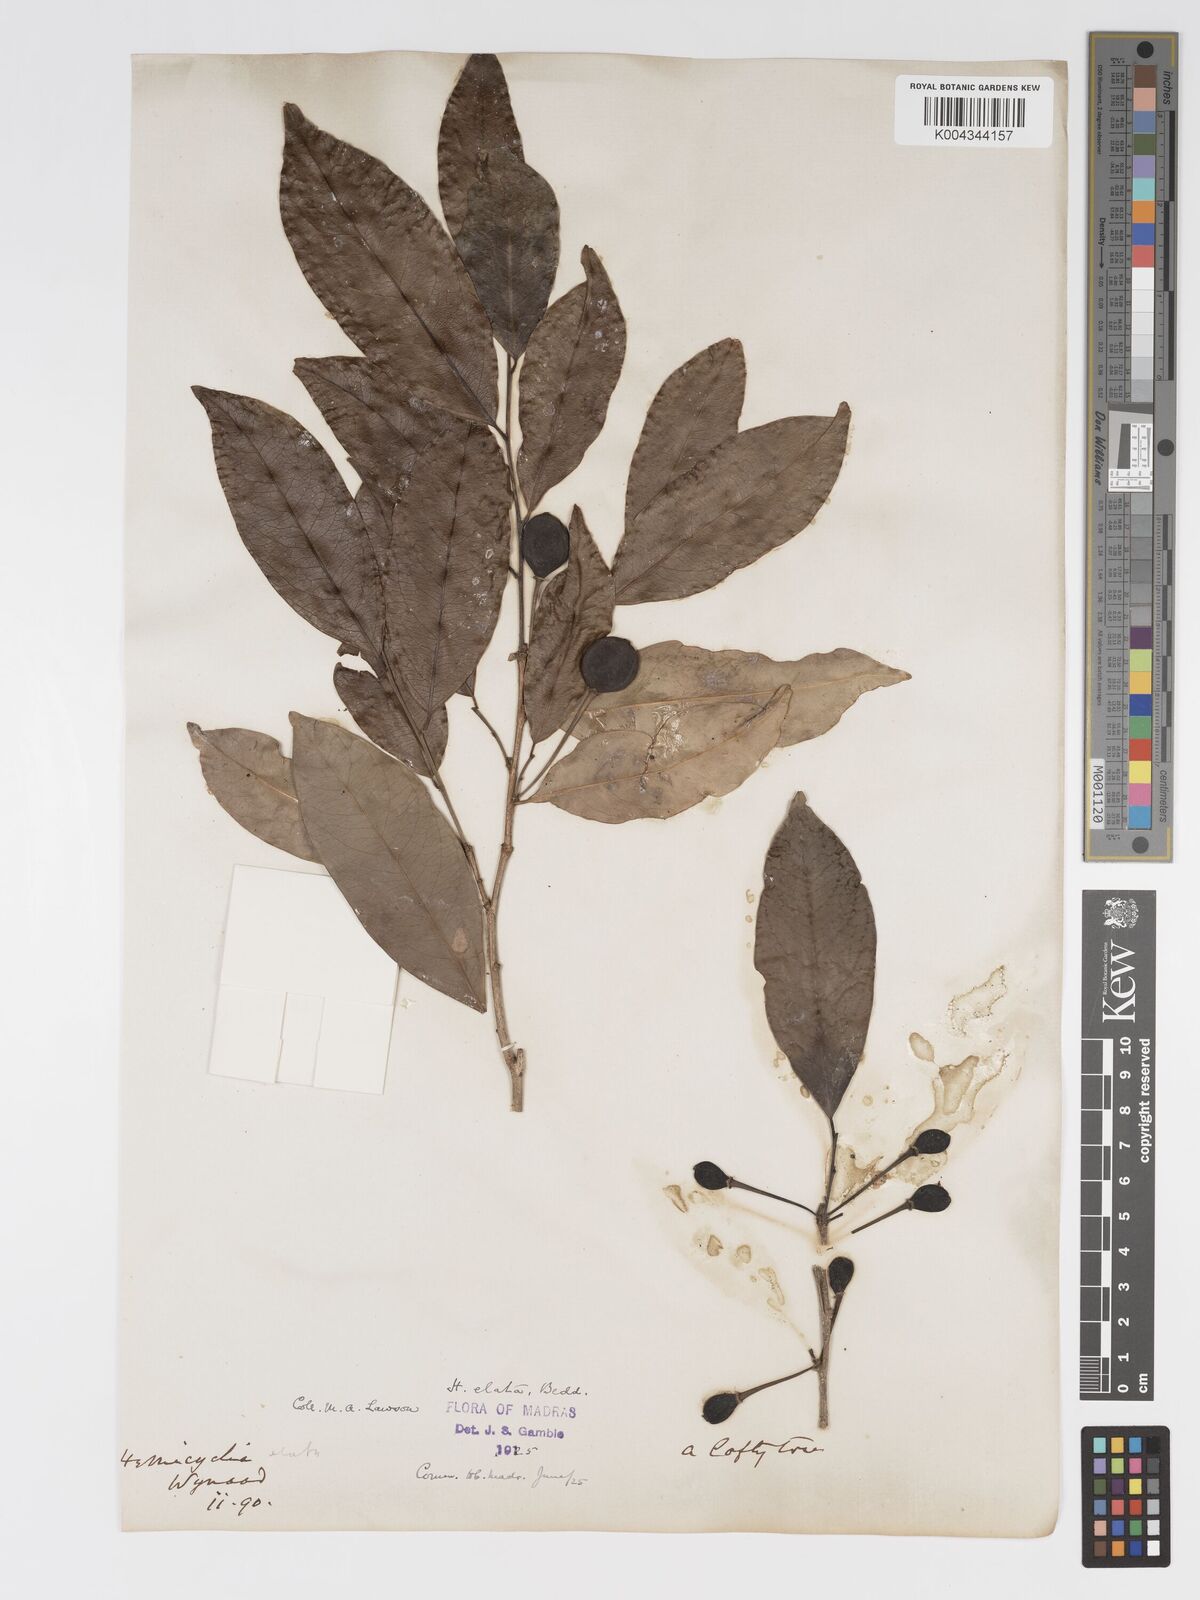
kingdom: Plantae
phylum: Tracheophyta
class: Magnoliopsida
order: Malpighiales
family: Putranjivaceae
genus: Drypetes
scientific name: Drypetes venusta
